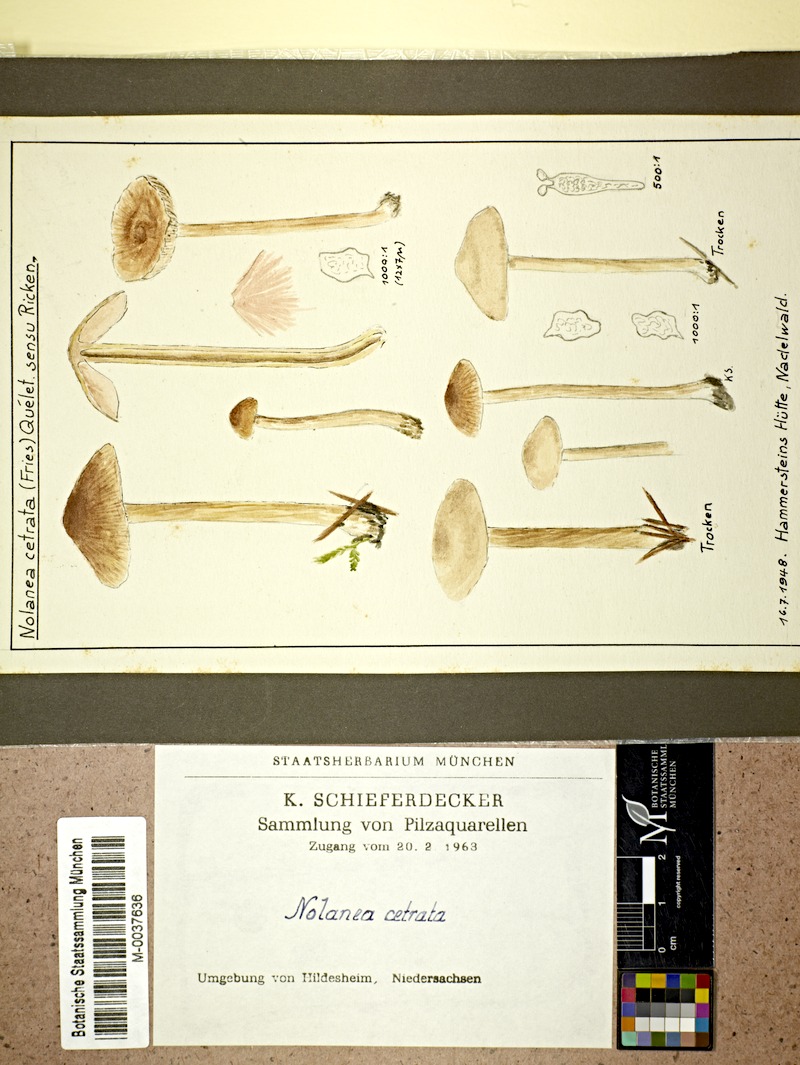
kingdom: Fungi
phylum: Basidiomycota
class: Agaricomycetes
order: Agaricales
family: Entolomataceae
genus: Entoloma
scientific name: Entoloma cetratum
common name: Honey pinkgill
